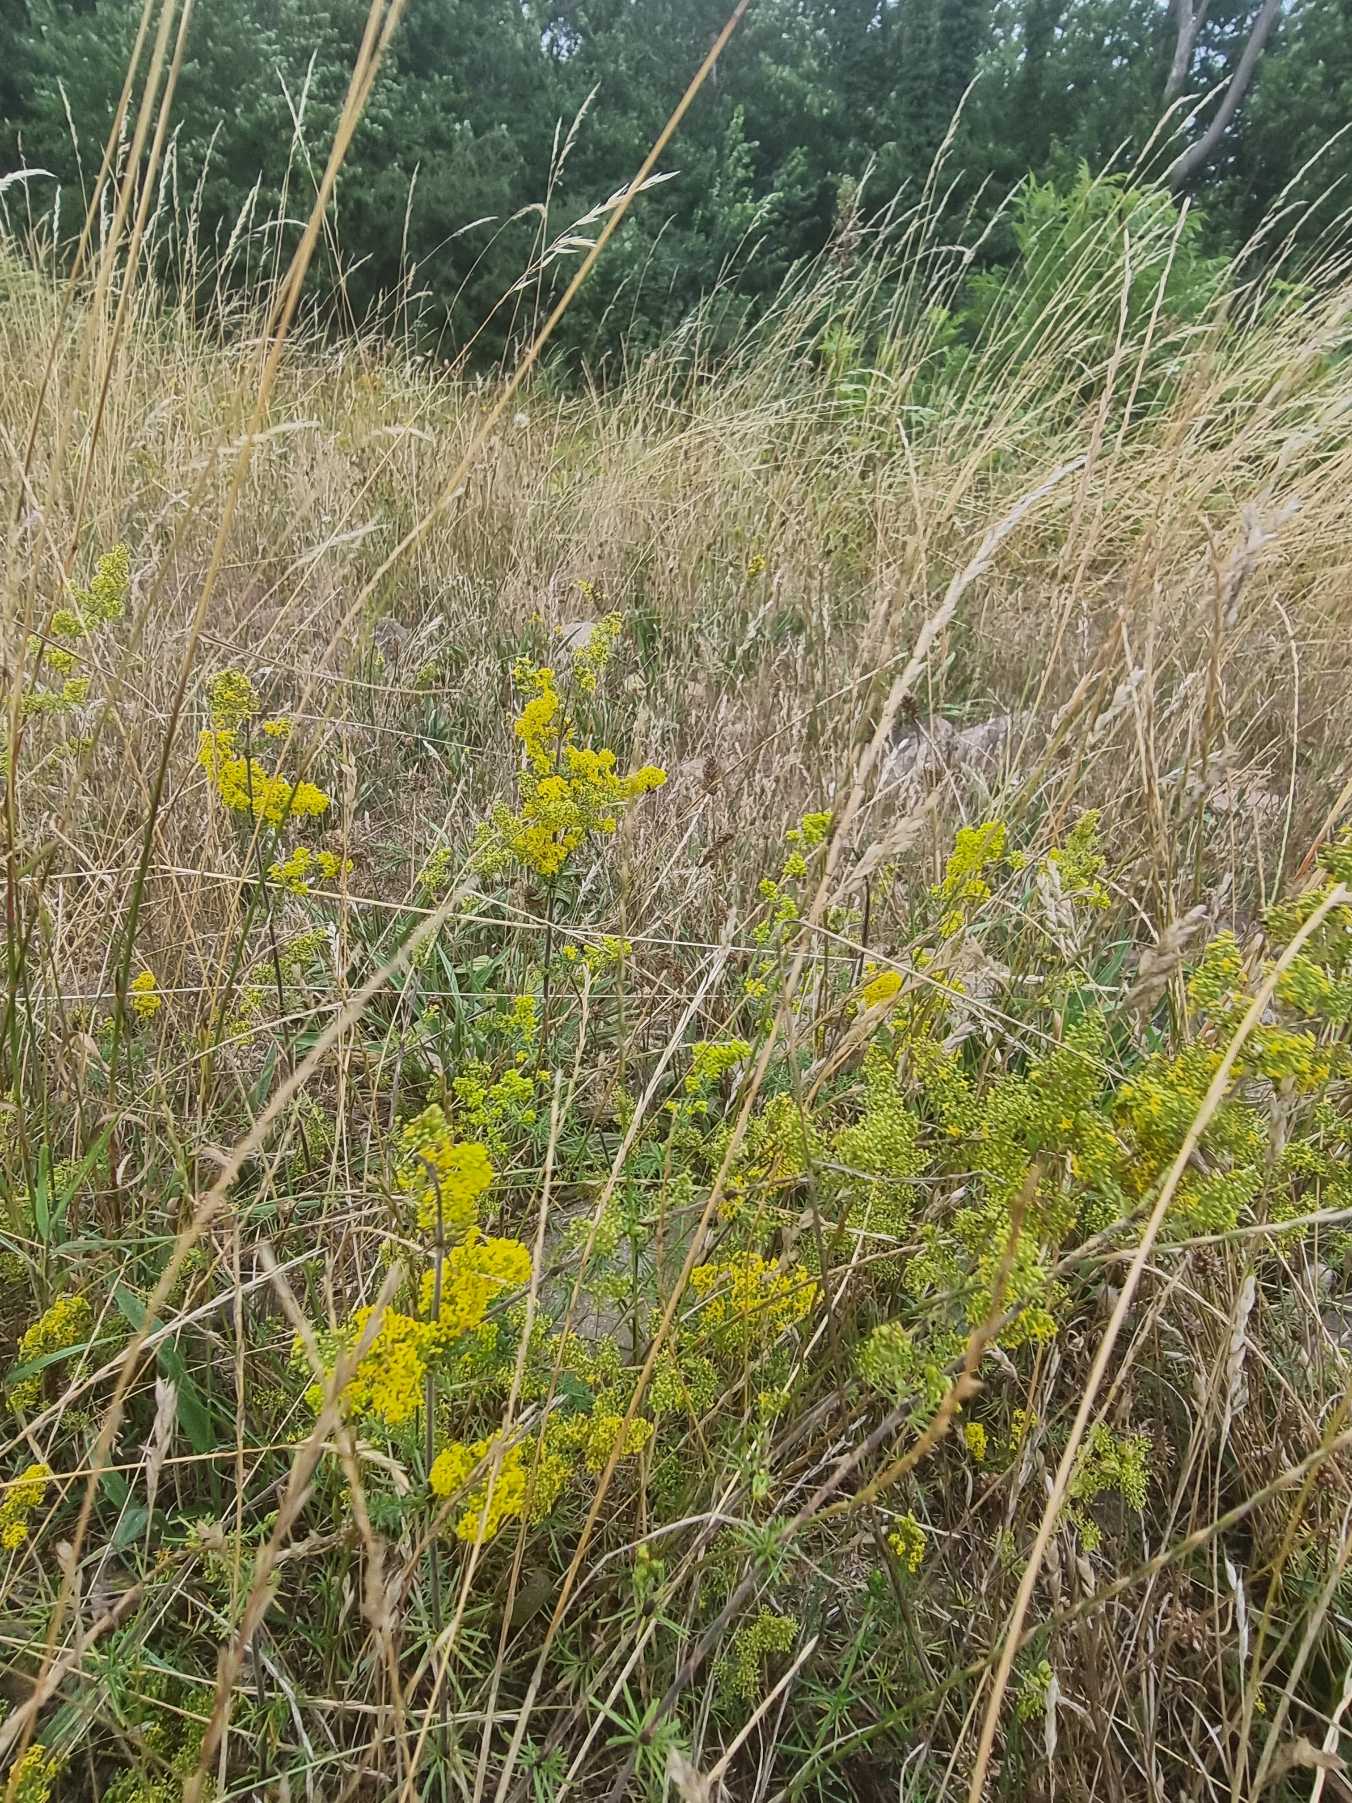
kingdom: Plantae
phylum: Tracheophyta
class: Magnoliopsida
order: Gentianales
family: Rubiaceae
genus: Galium
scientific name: Galium verum
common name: Gul snerre
